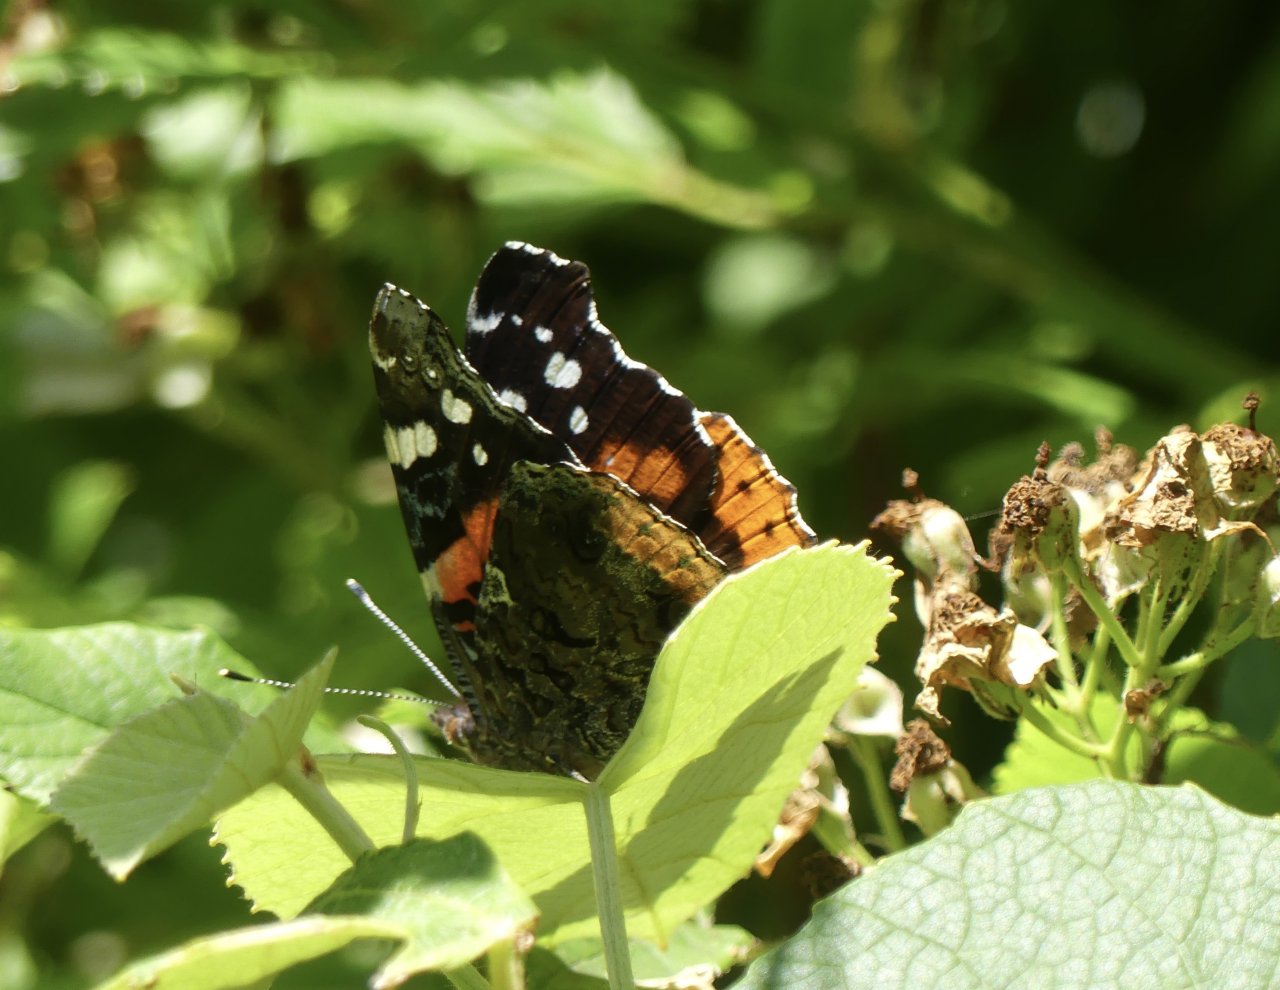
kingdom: Animalia
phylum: Arthropoda
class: Insecta
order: Lepidoptera
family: Nymphalidae
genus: Vanessa
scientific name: Vanessa atalanta
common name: Red Admiral
